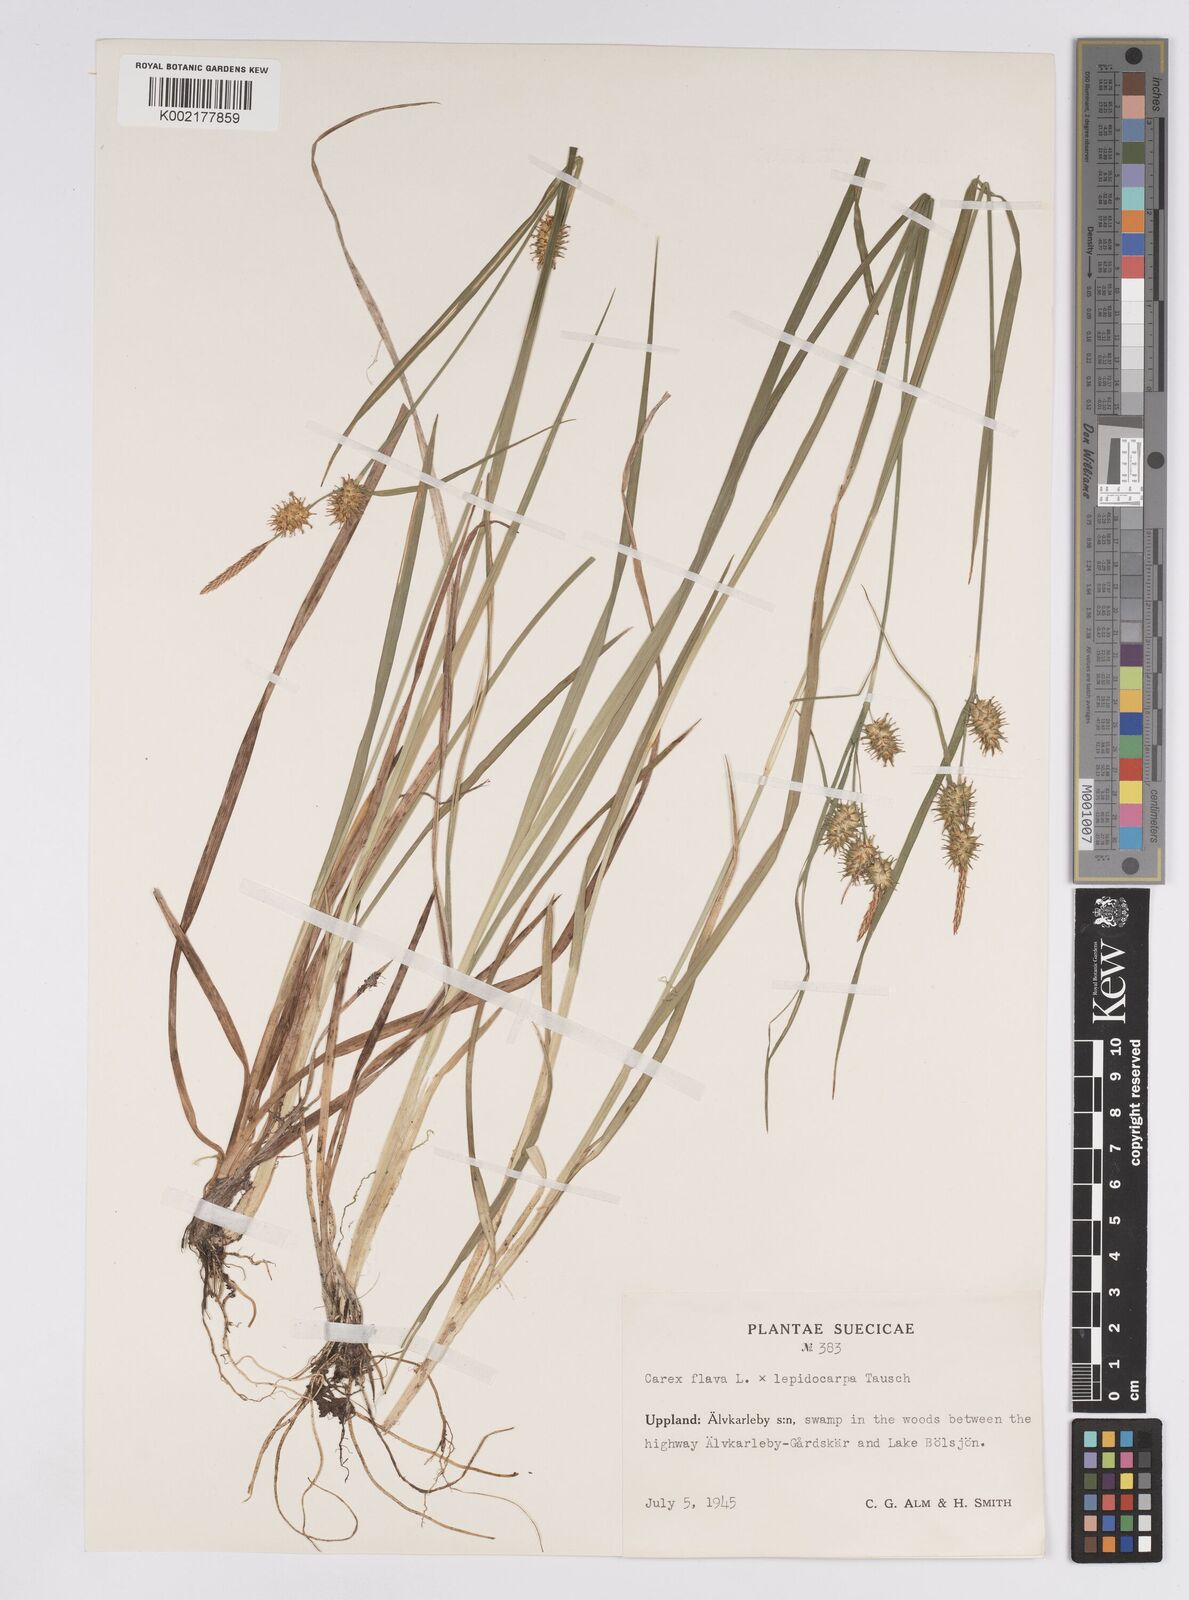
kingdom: Plantae
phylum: Tracheophyta
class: Liliopsida
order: Poales
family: Cyperaceae
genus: Carex
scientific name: Carex flava
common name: Large yellow-sedge
